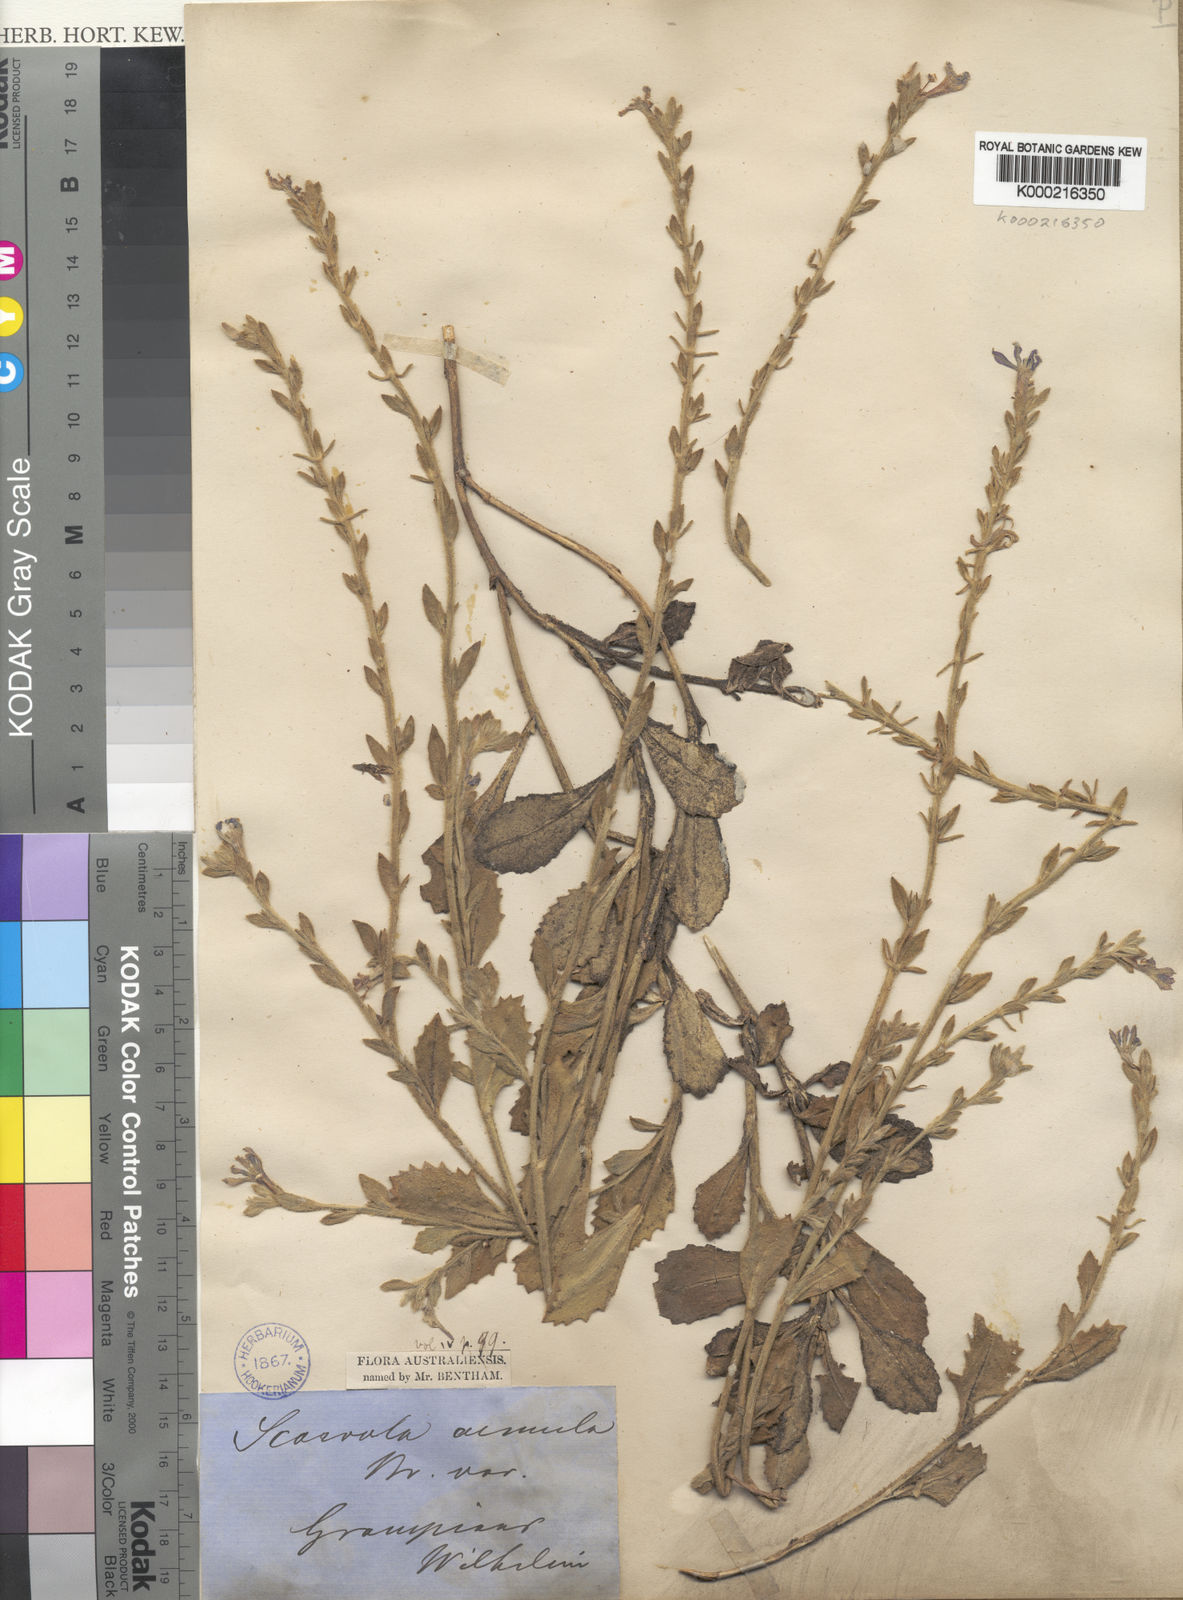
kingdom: Plantae
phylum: Tracheophyta
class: Magnoliopsida
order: Asterales
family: Goodeniaceae
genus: Scaevola
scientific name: Scaevola aemula
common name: Common fanflower
